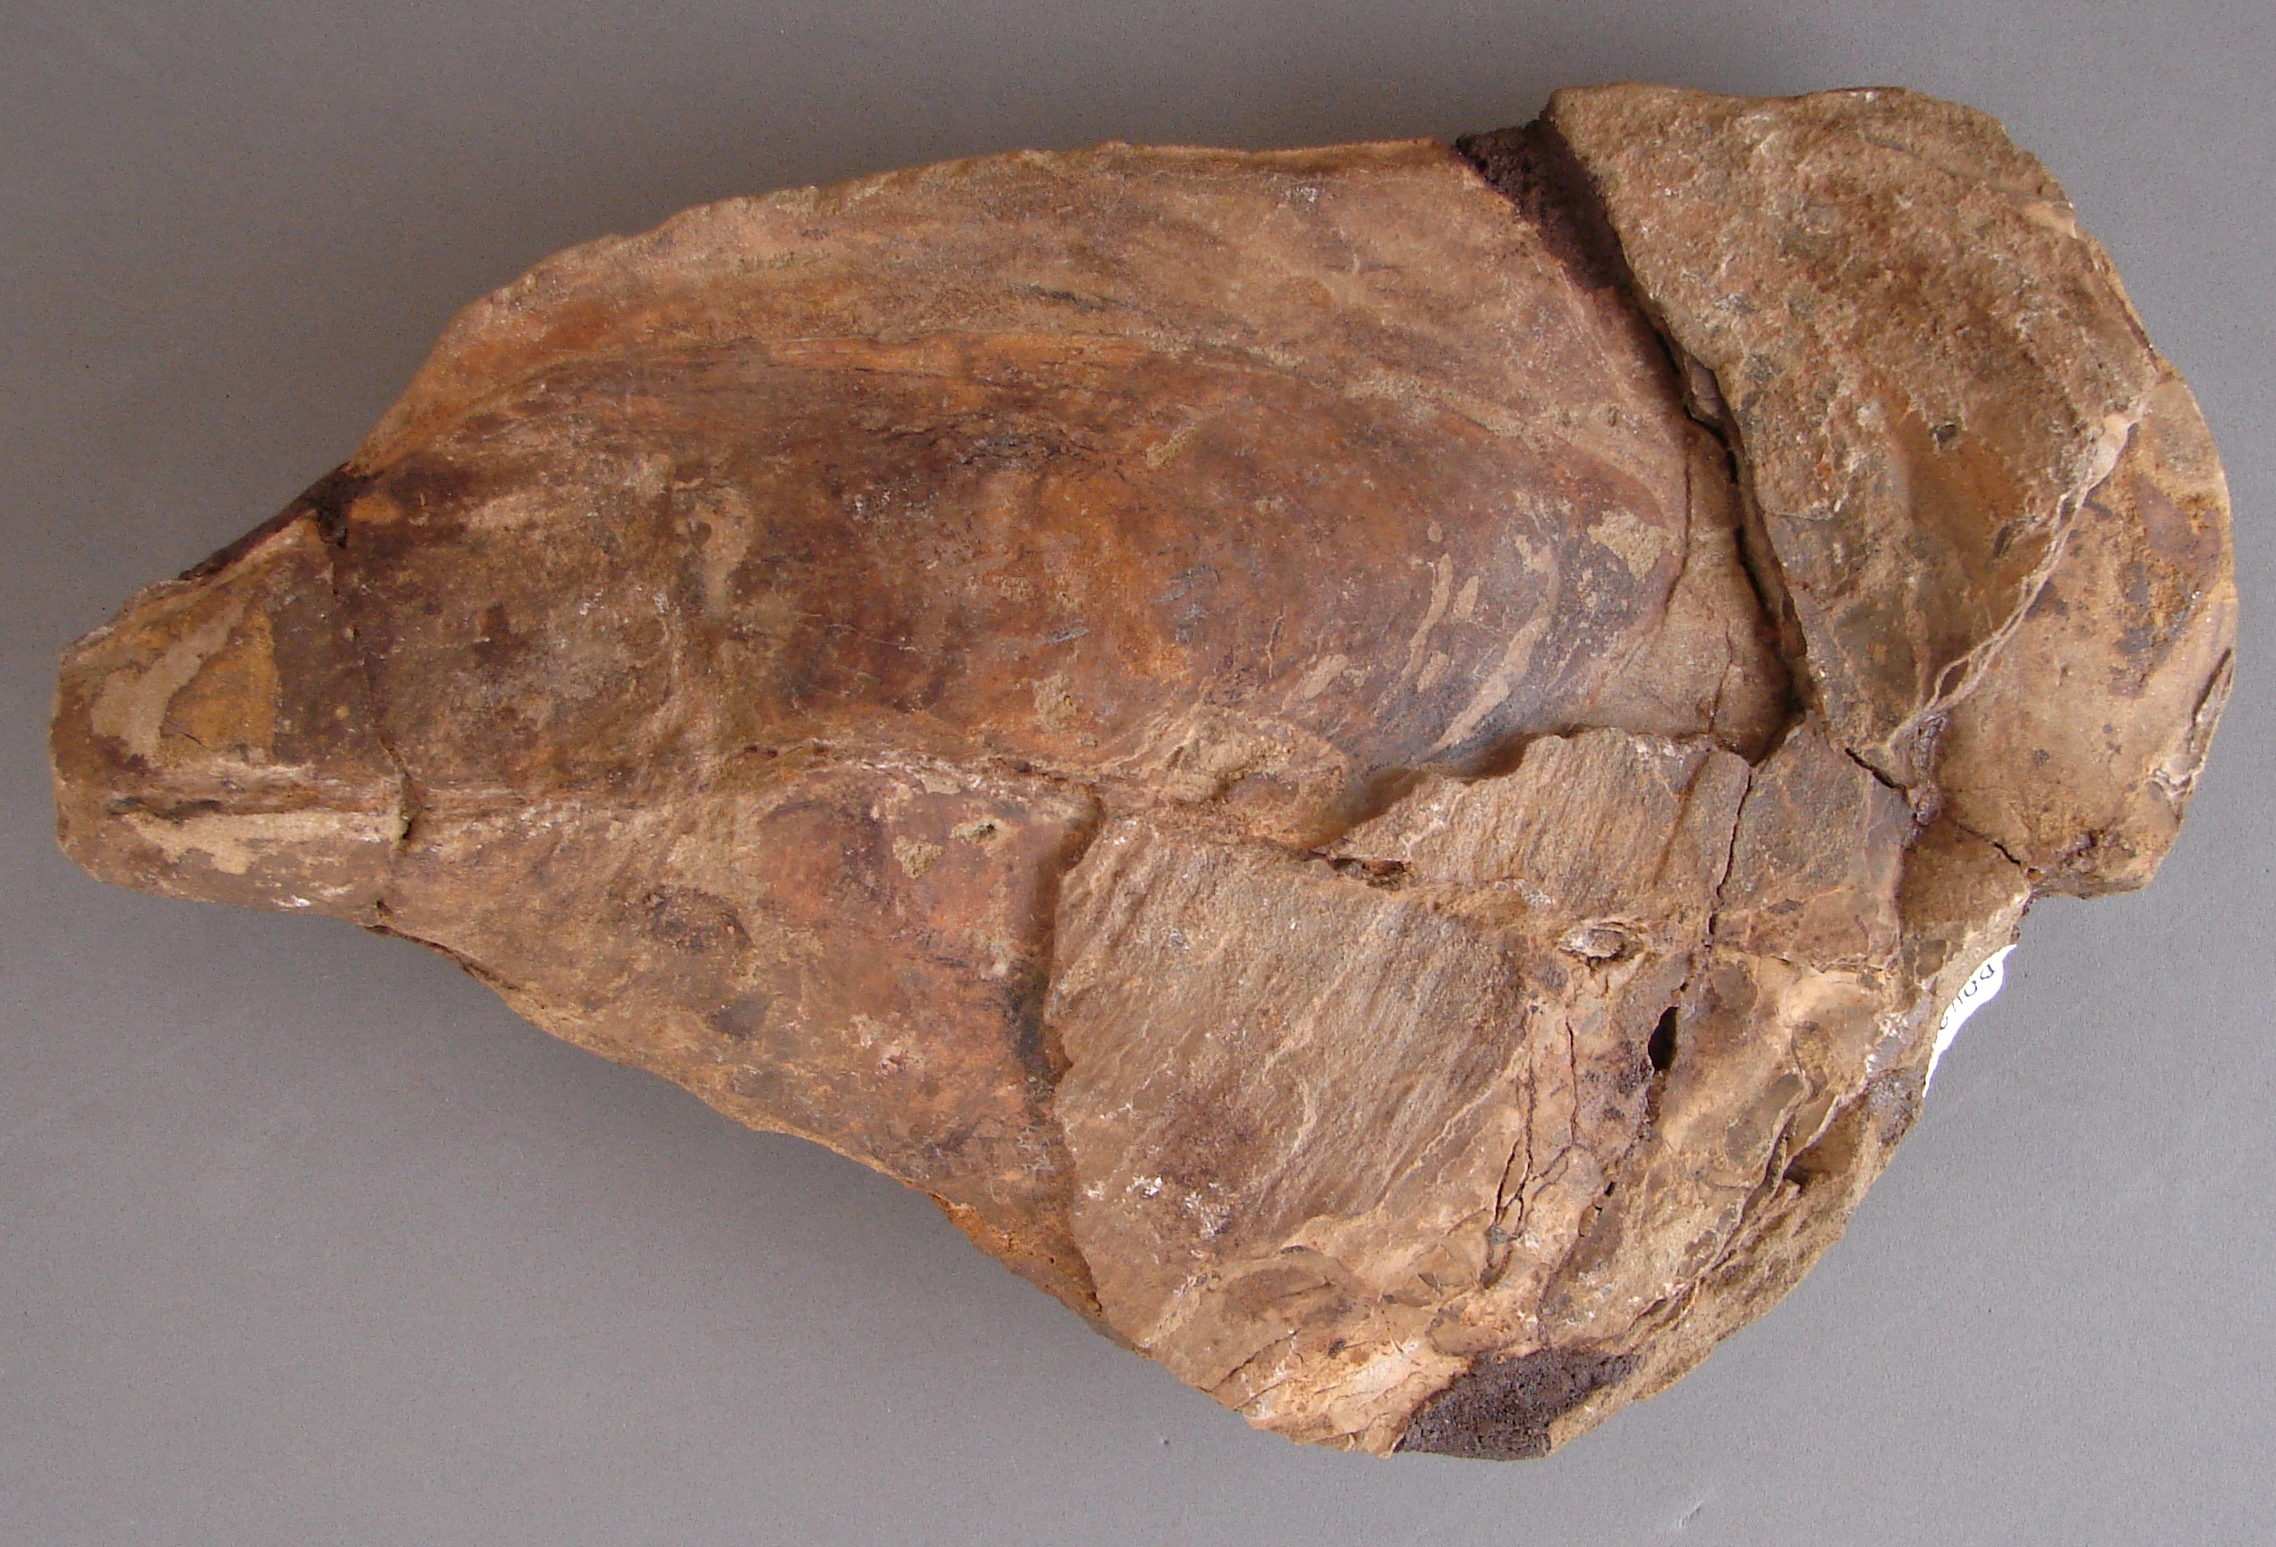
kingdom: Animalia
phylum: Mollusca
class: Bivalvia
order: Ostreida
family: Pinnidae
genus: Pinna
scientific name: Pinna opalina
